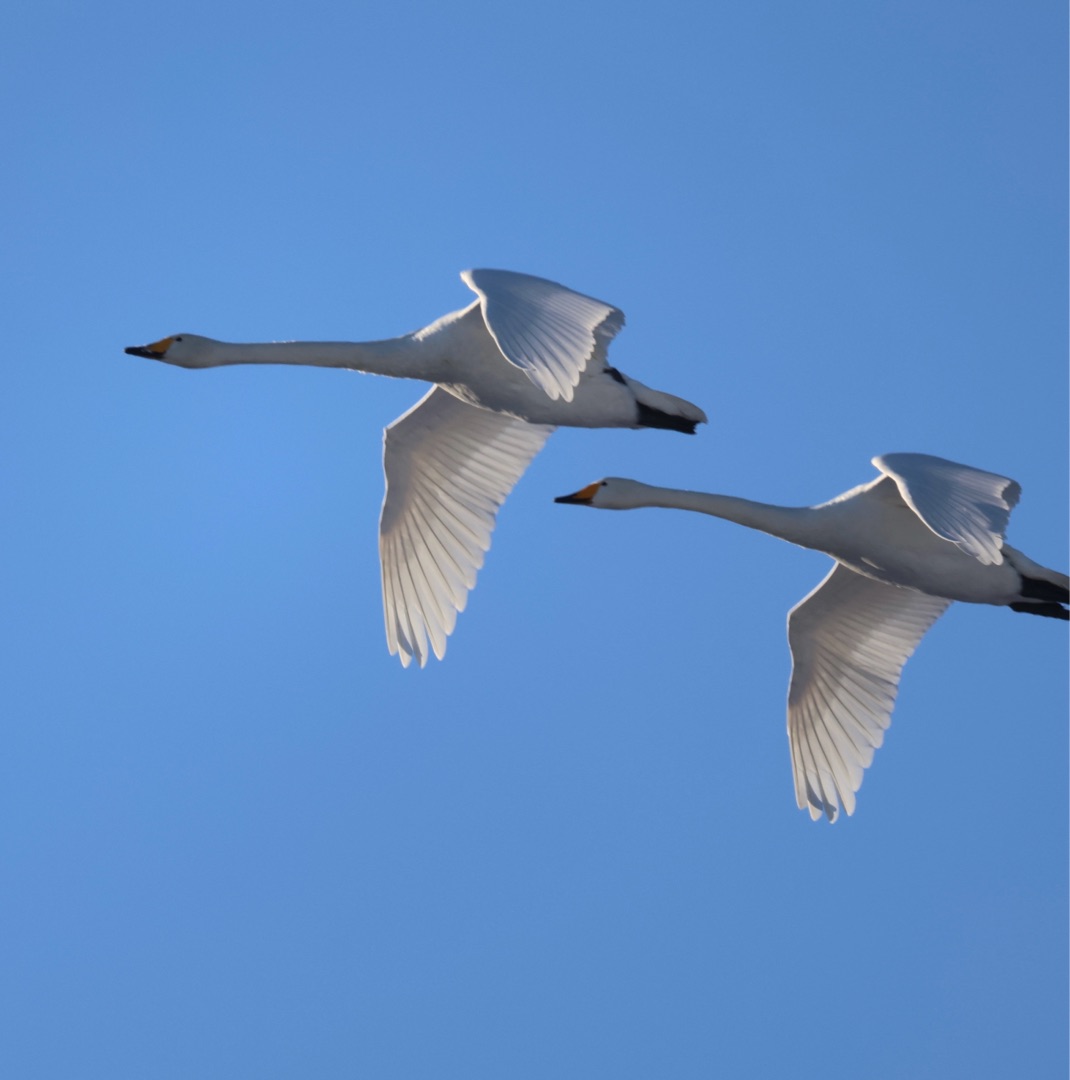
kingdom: Animalia
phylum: Chordata
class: Aves
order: Anseriformes
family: Anatidae
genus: Cygnus
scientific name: Cygnus cygnus
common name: Sangsvane
